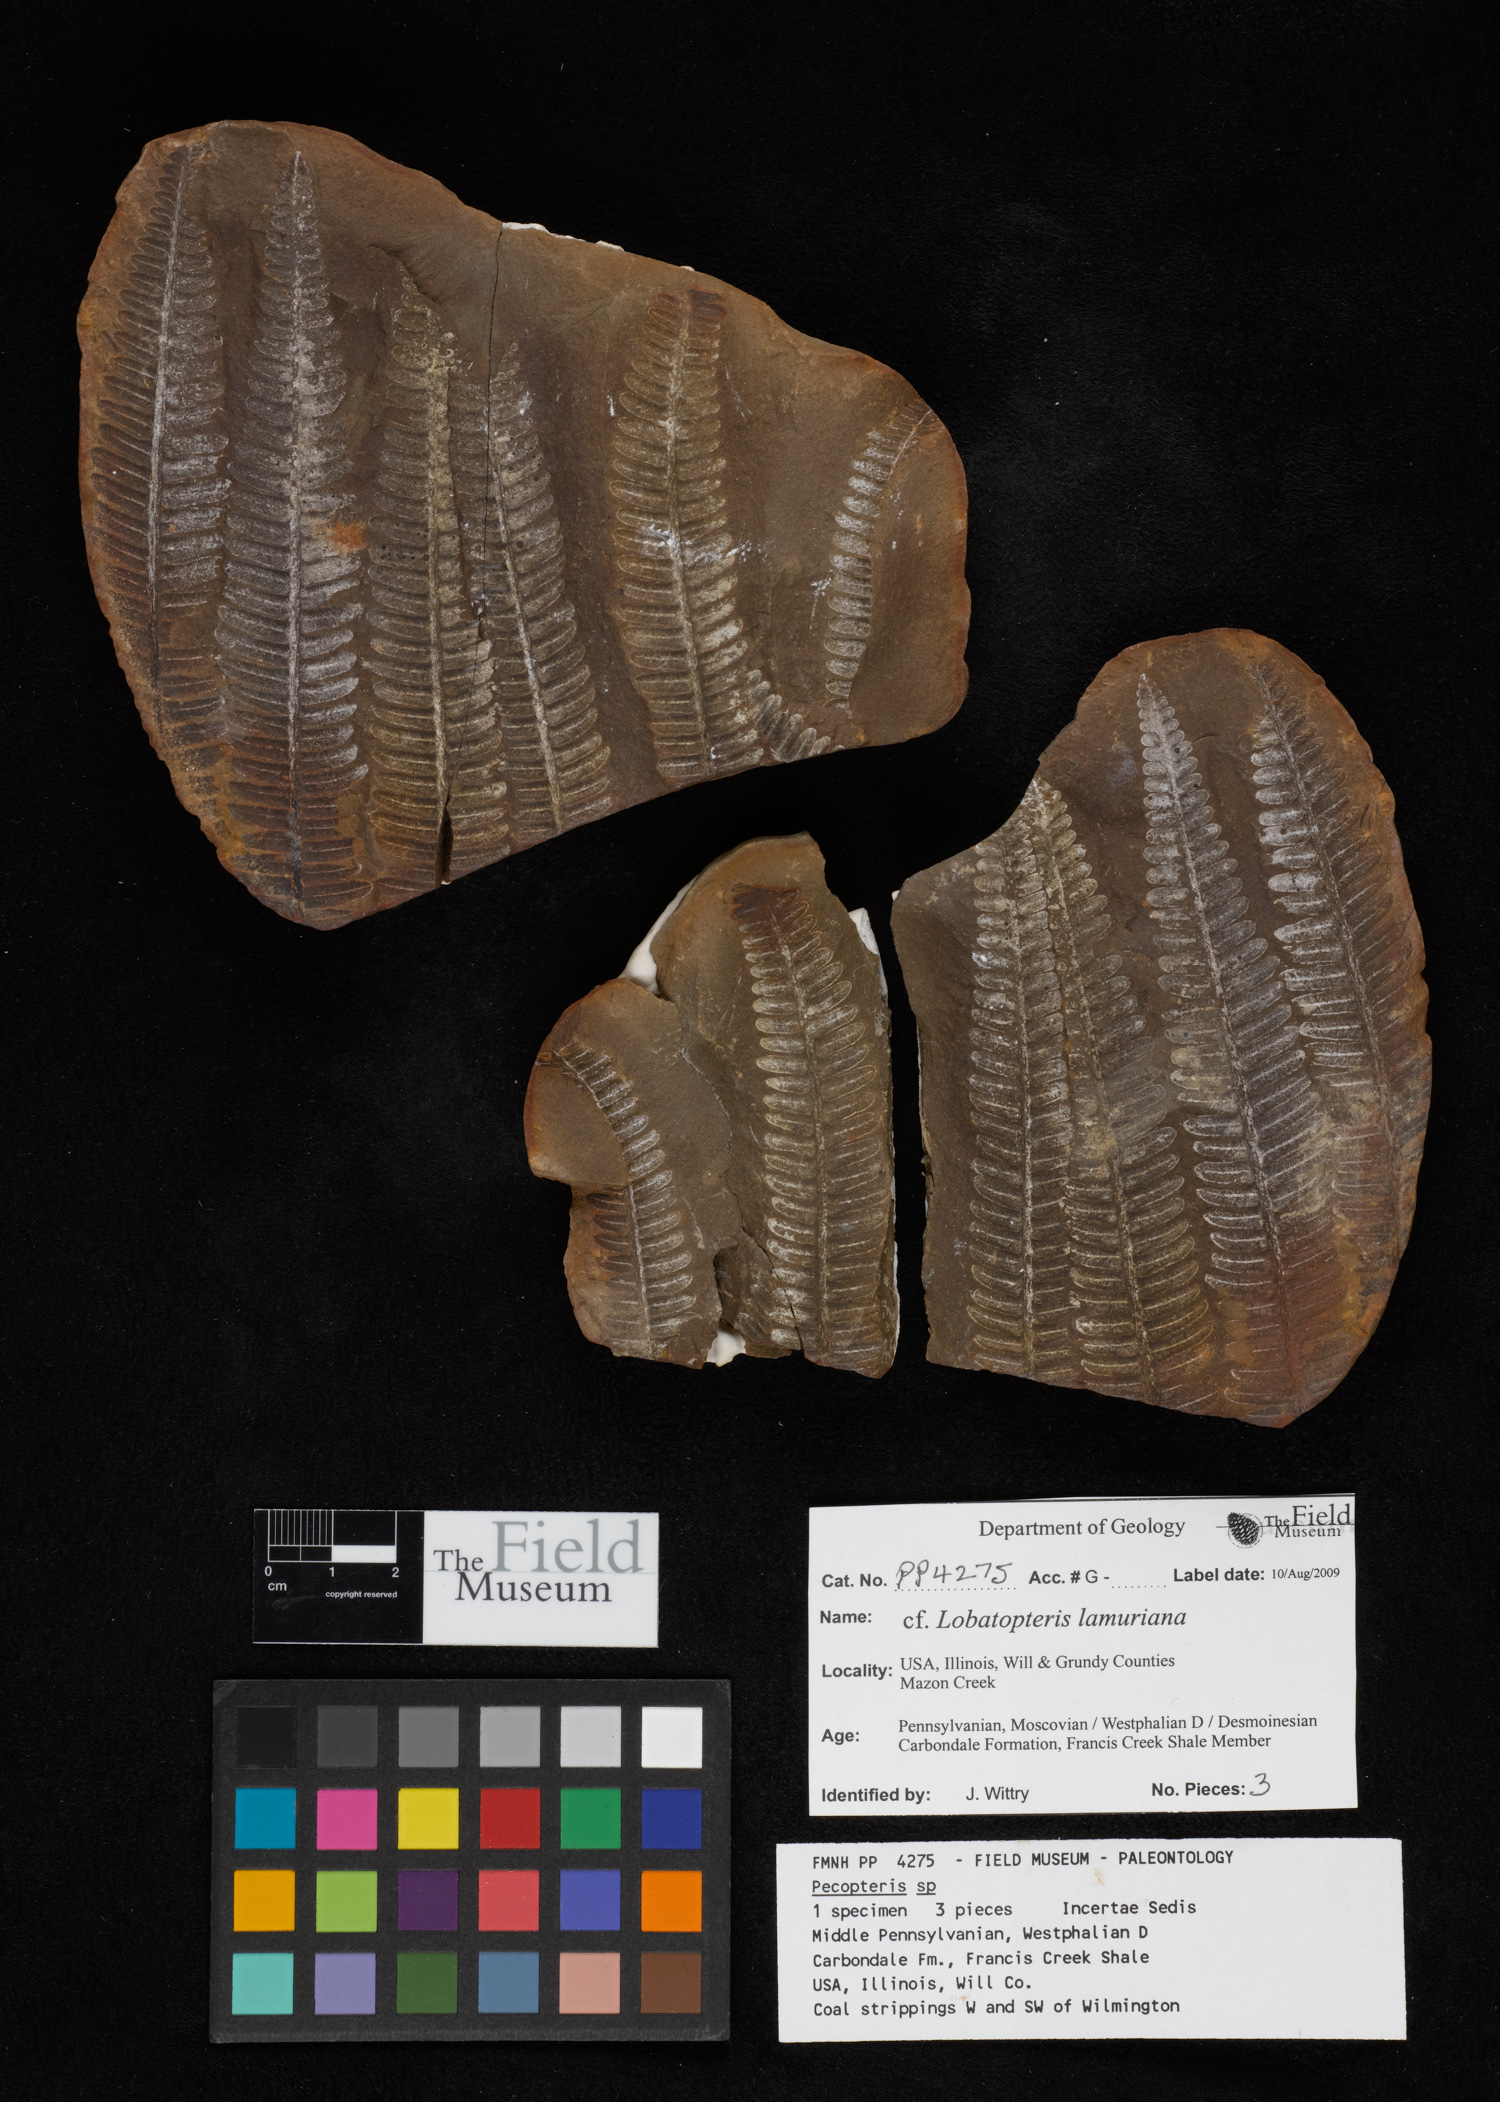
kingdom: Plantae
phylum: Tracheophyta
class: Polypodiopsida
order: Marattiales
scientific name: Marattiales
